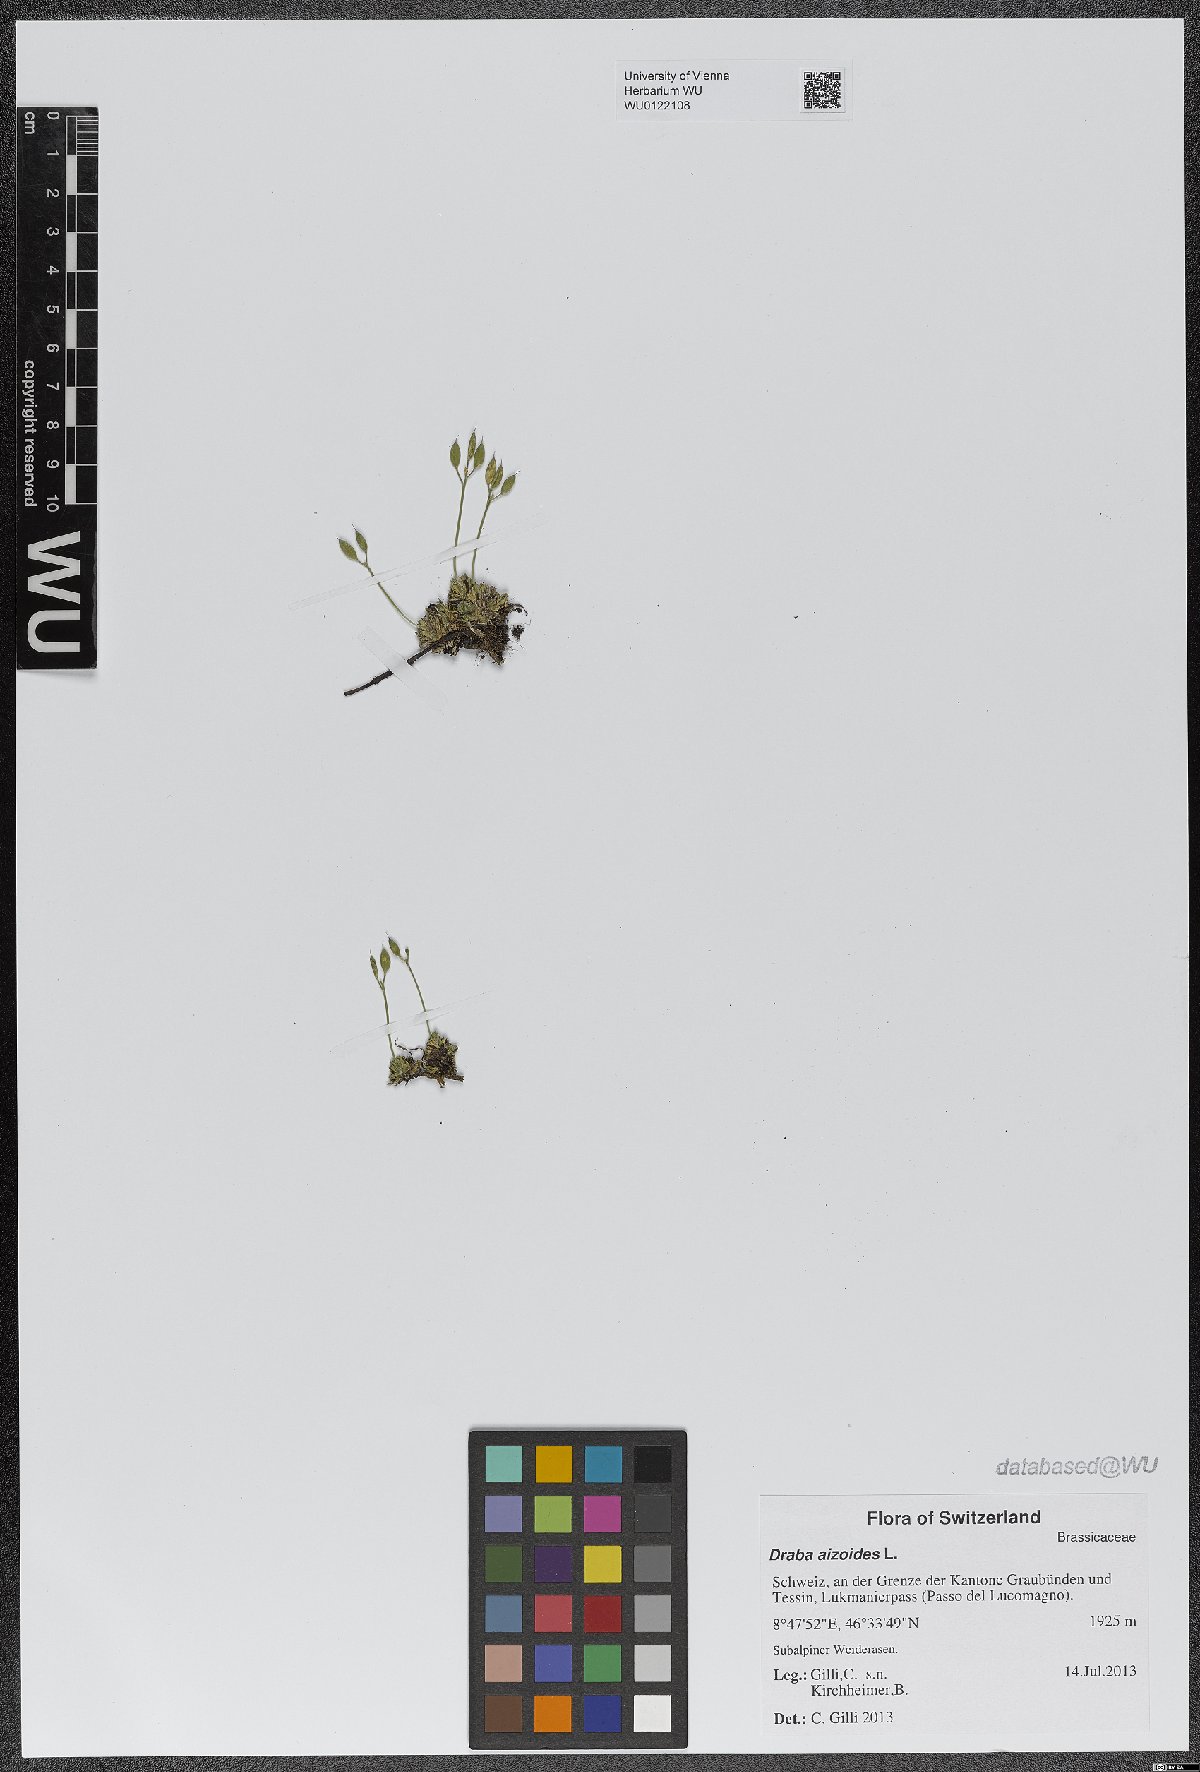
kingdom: Plantae
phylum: Tracheophyta
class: Magnoliopsida
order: Brassicales
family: Brassicaceae
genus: Draba
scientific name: Draba aizoides
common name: Yellow whitlowgrass
